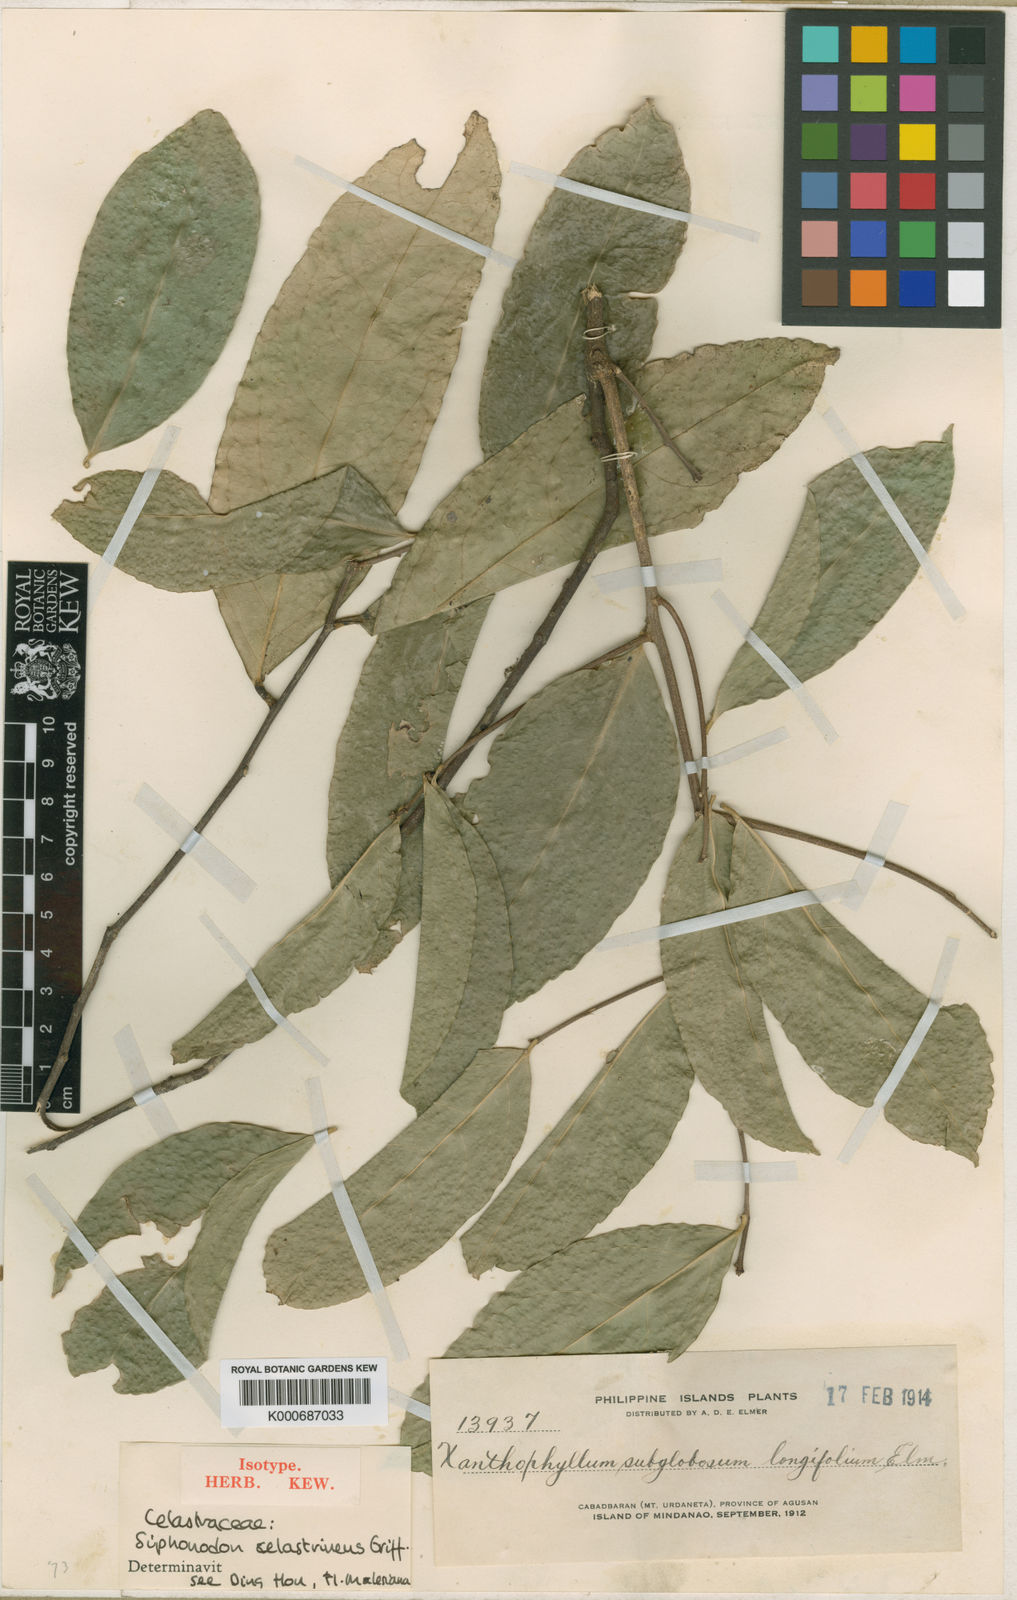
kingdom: Plantae
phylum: Tracheophyta
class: Magnoliopsida
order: Celastrales
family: Celastraceae
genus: Siphonodon
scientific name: Siphonodon celastrineus
